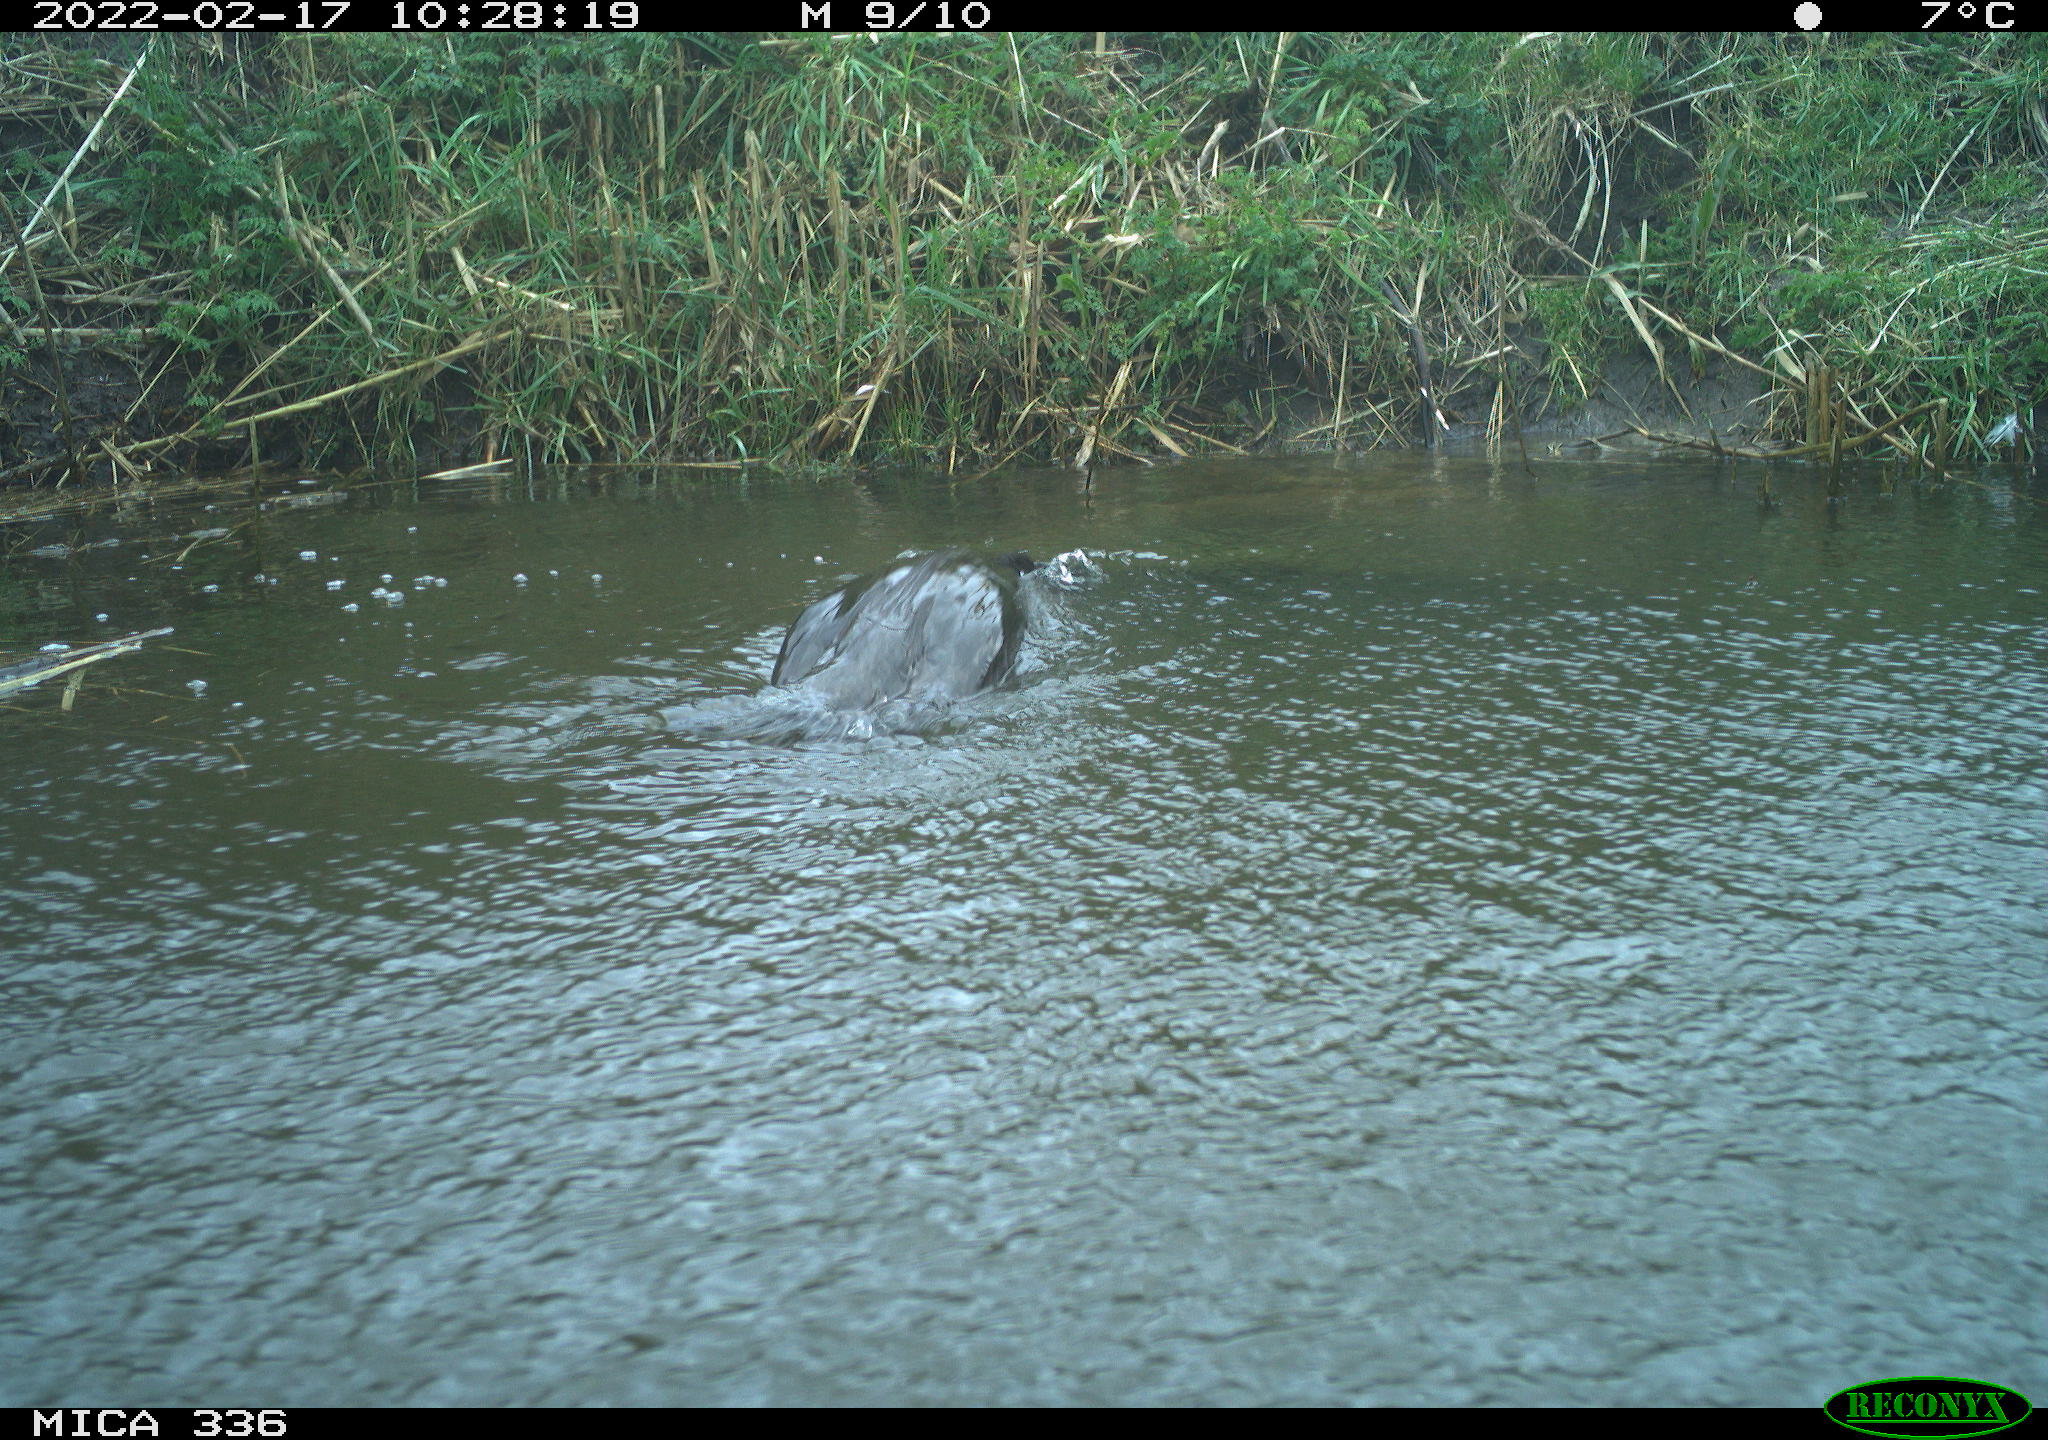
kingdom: Animalia
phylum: Chordata
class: Aves
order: Suliformes
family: Phalacrocoracidae
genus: Phalacrocorax
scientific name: Phalacrocorax carbo
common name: Great cormorant
